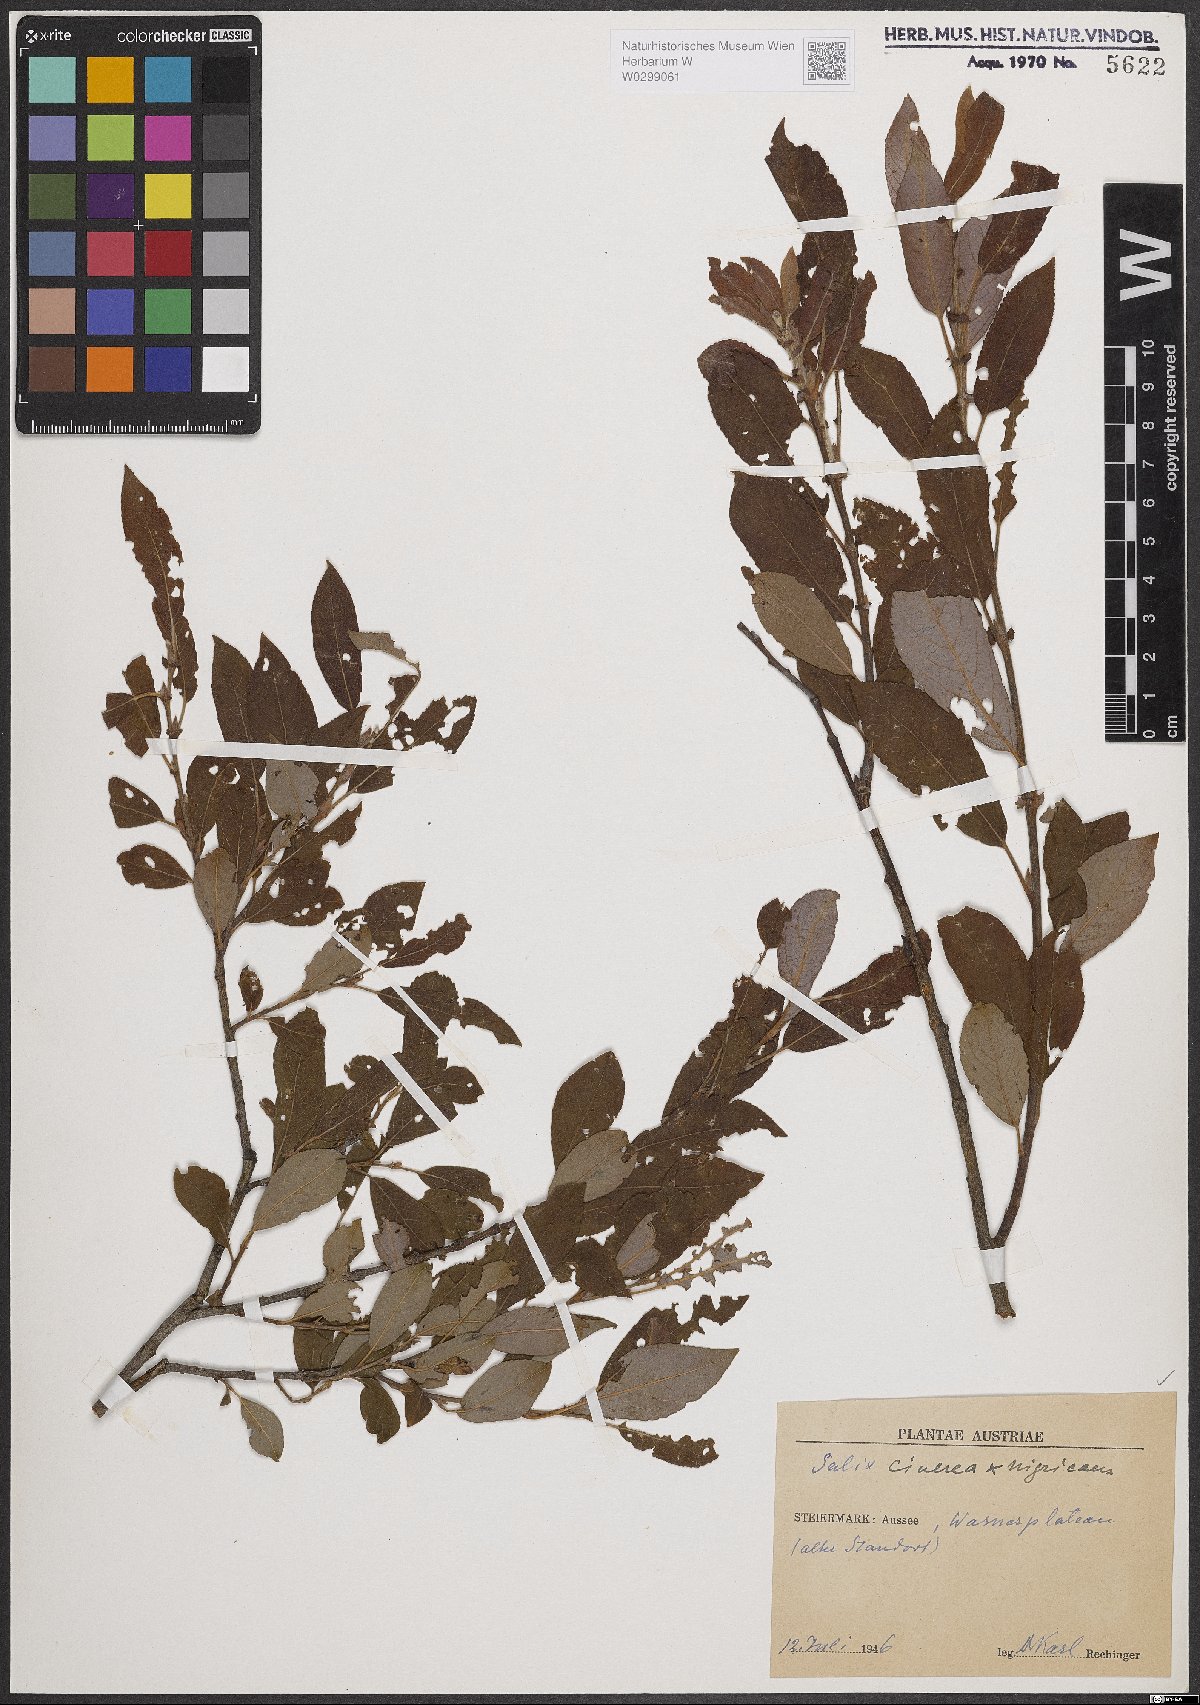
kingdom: Plantae
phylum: Tracheophyta
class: Magnoliopsida
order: Malpighiales
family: Salicaceae
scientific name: Salicaceae
